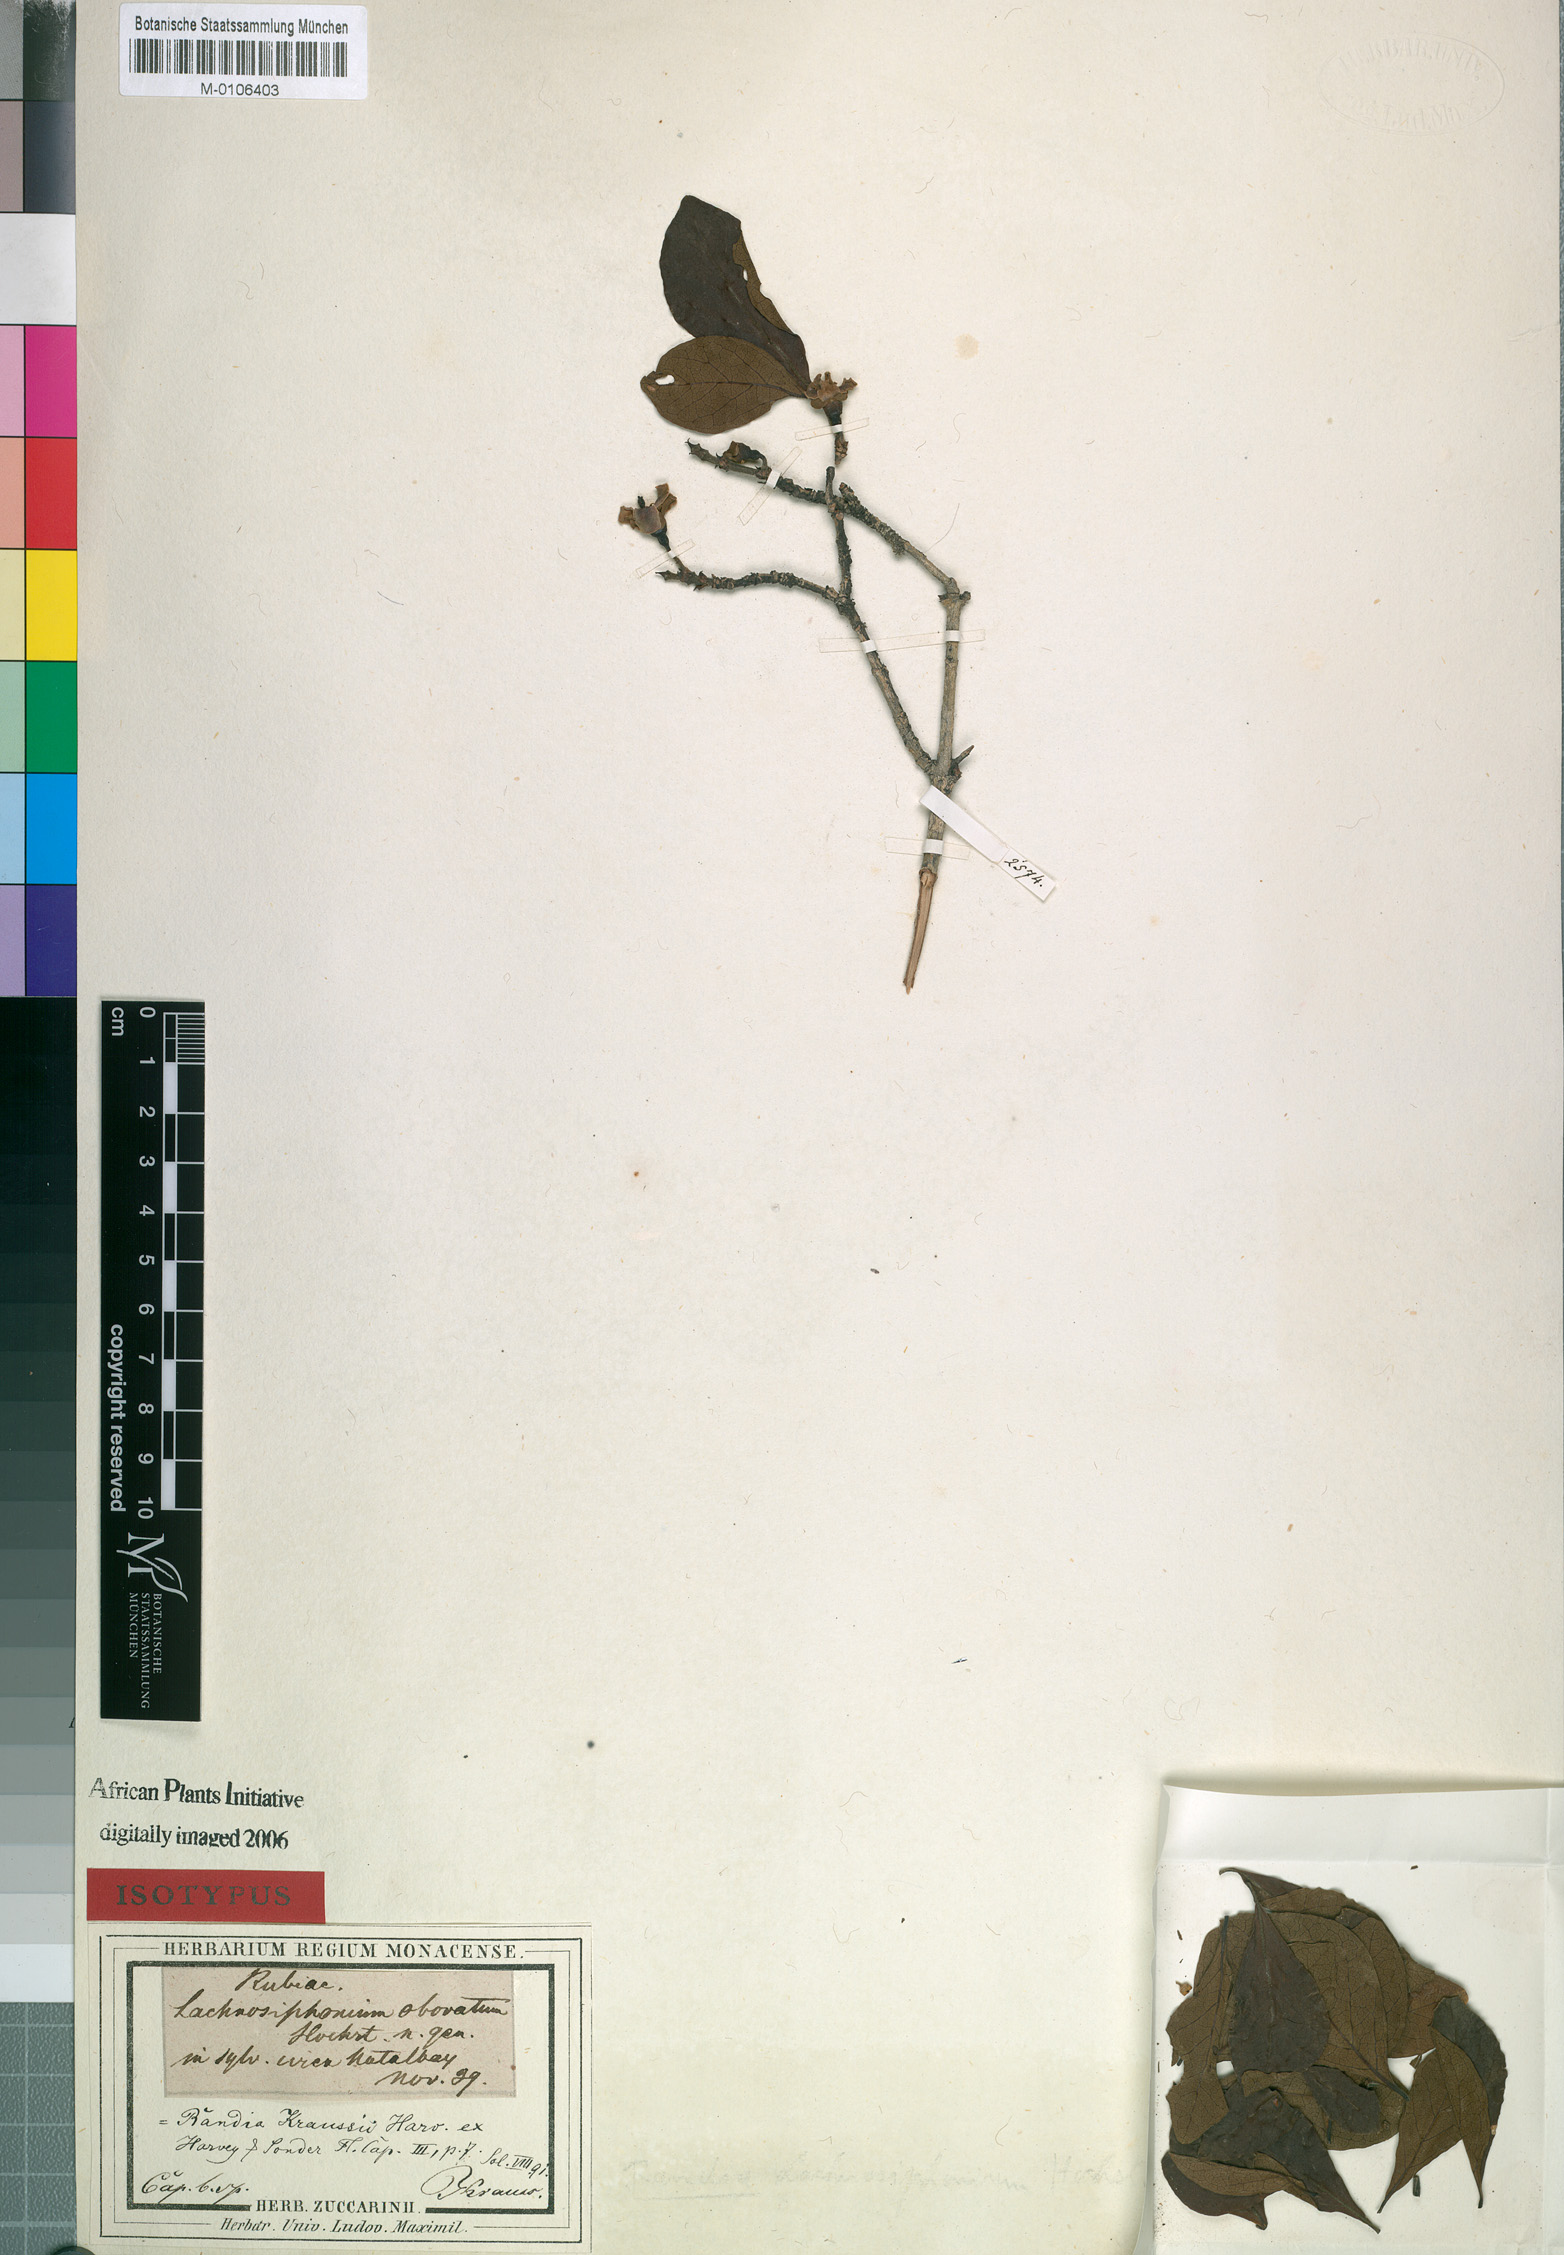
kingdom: Plantae
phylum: Tracheophyta
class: Magnoliopsida
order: Gentianales
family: Rubiaceae
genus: Catunaregam
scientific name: Catunaregam spinosa
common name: Emetic-nut
